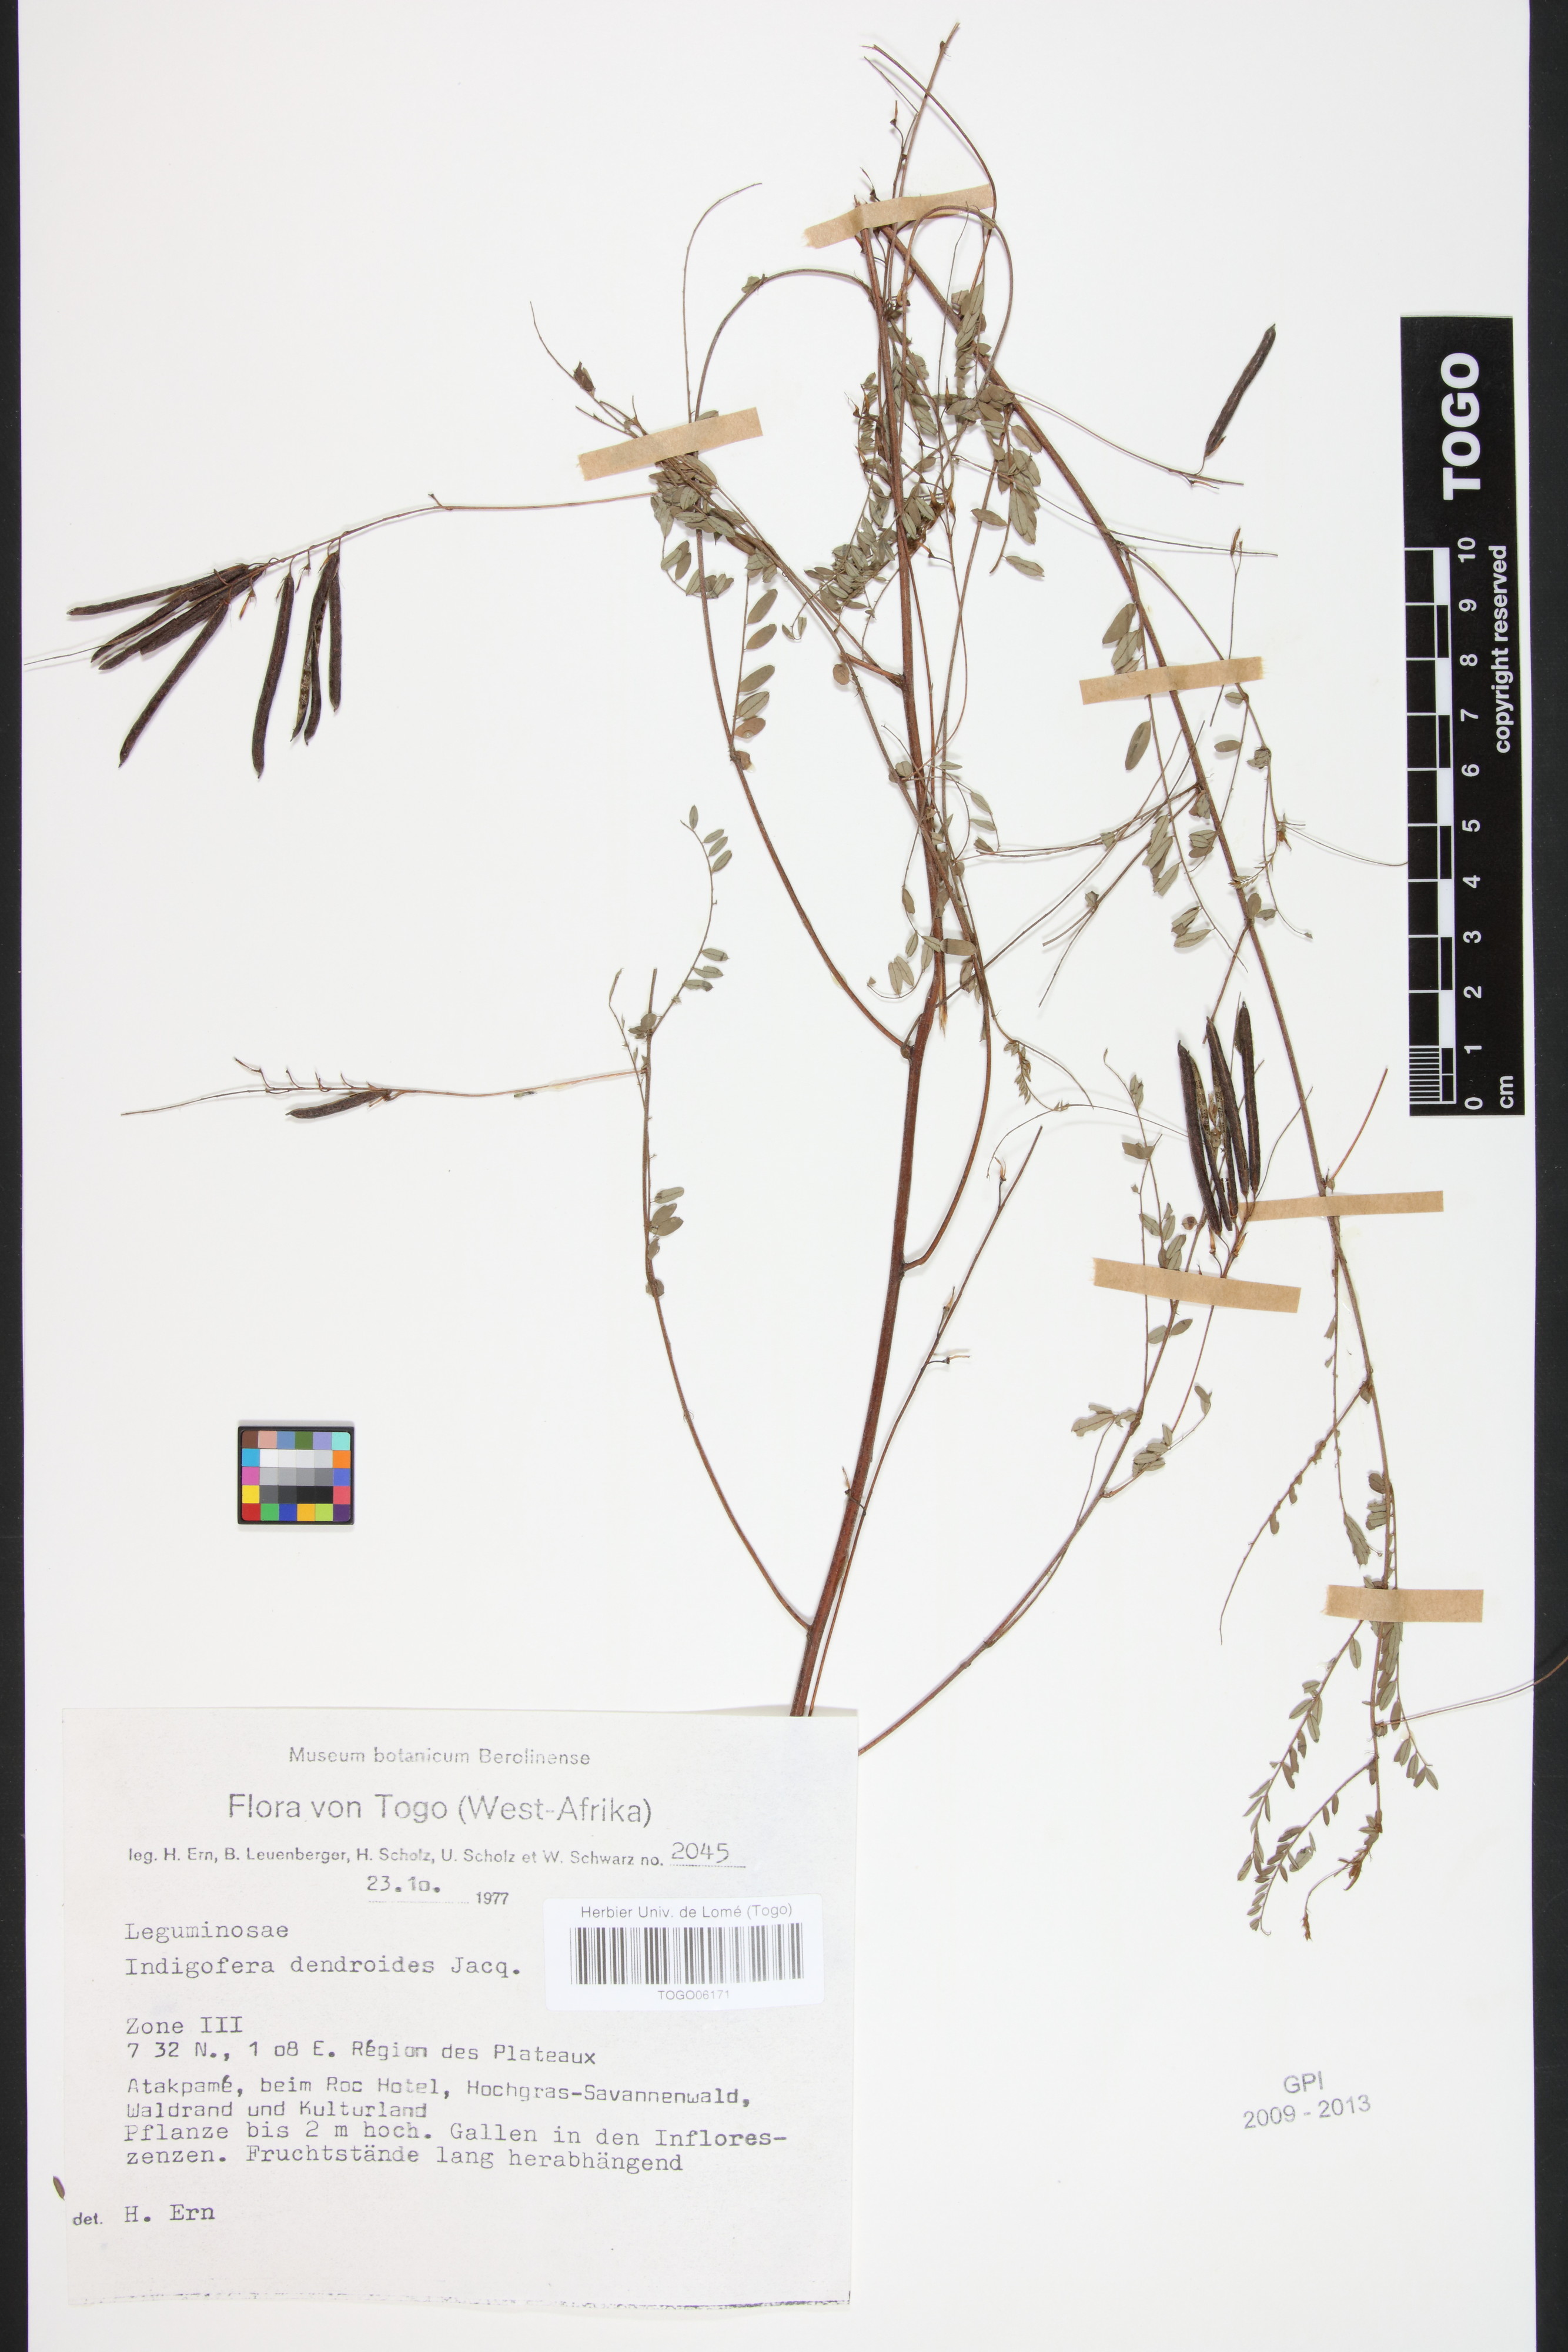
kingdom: Plantae
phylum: Tracheophyta
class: Magnoliopsida
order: Fabales
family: Fabaceae
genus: Indigofera
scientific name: Indigofera dendroides
